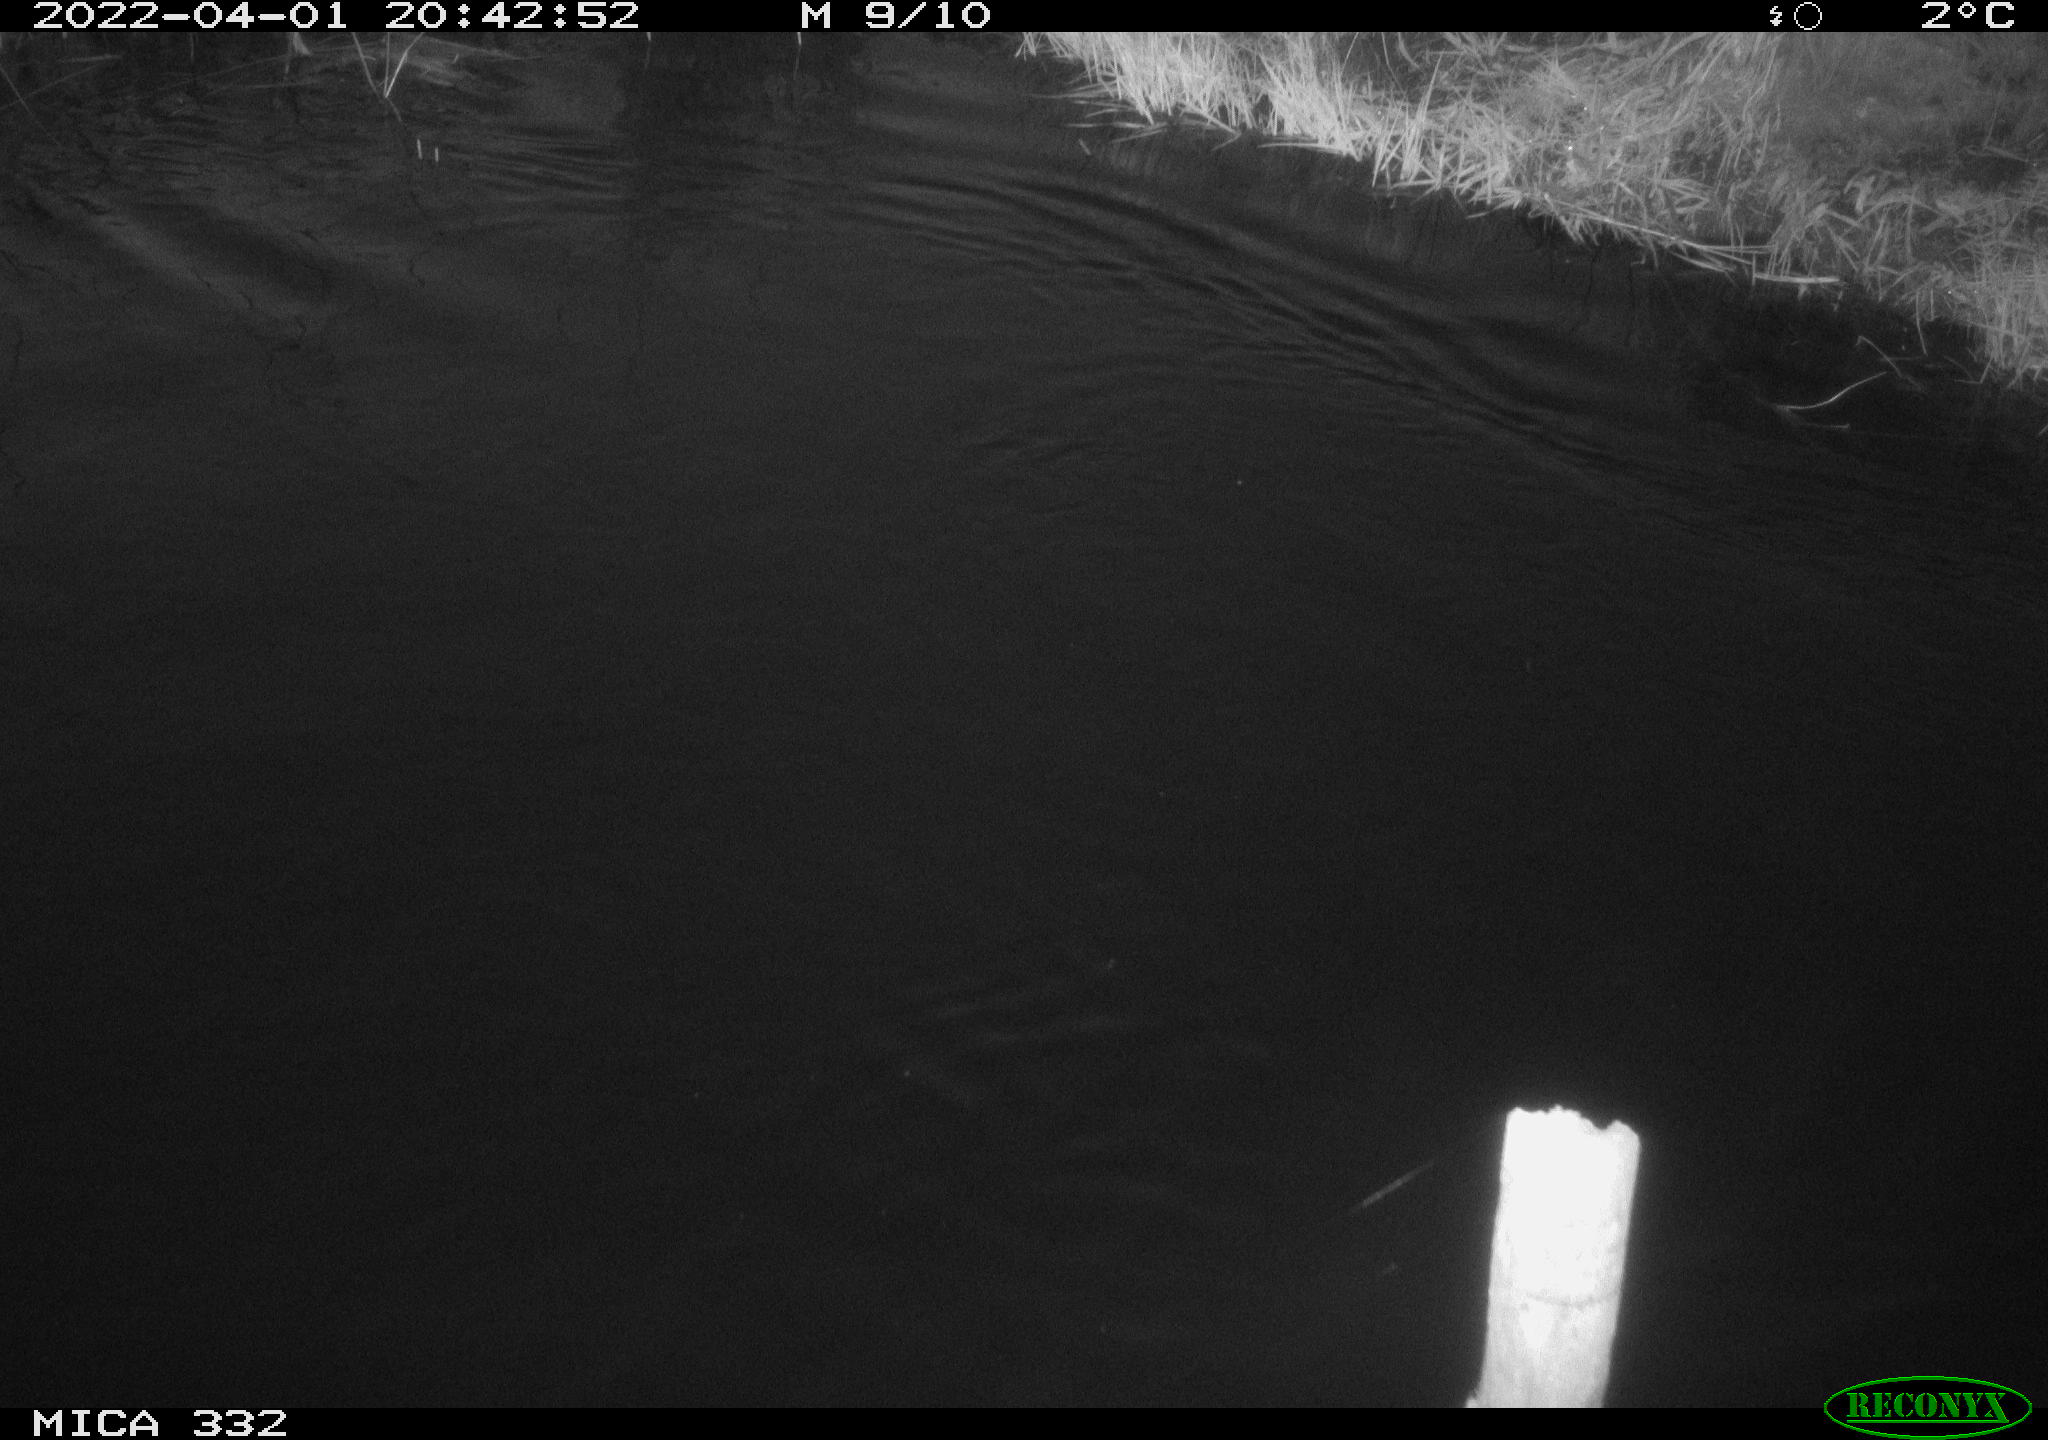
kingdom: Animalia
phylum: Chordata
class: Aves
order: Anseriformes
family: Anatidae
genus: Cygnus
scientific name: Cygnus olor
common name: Mute swan
